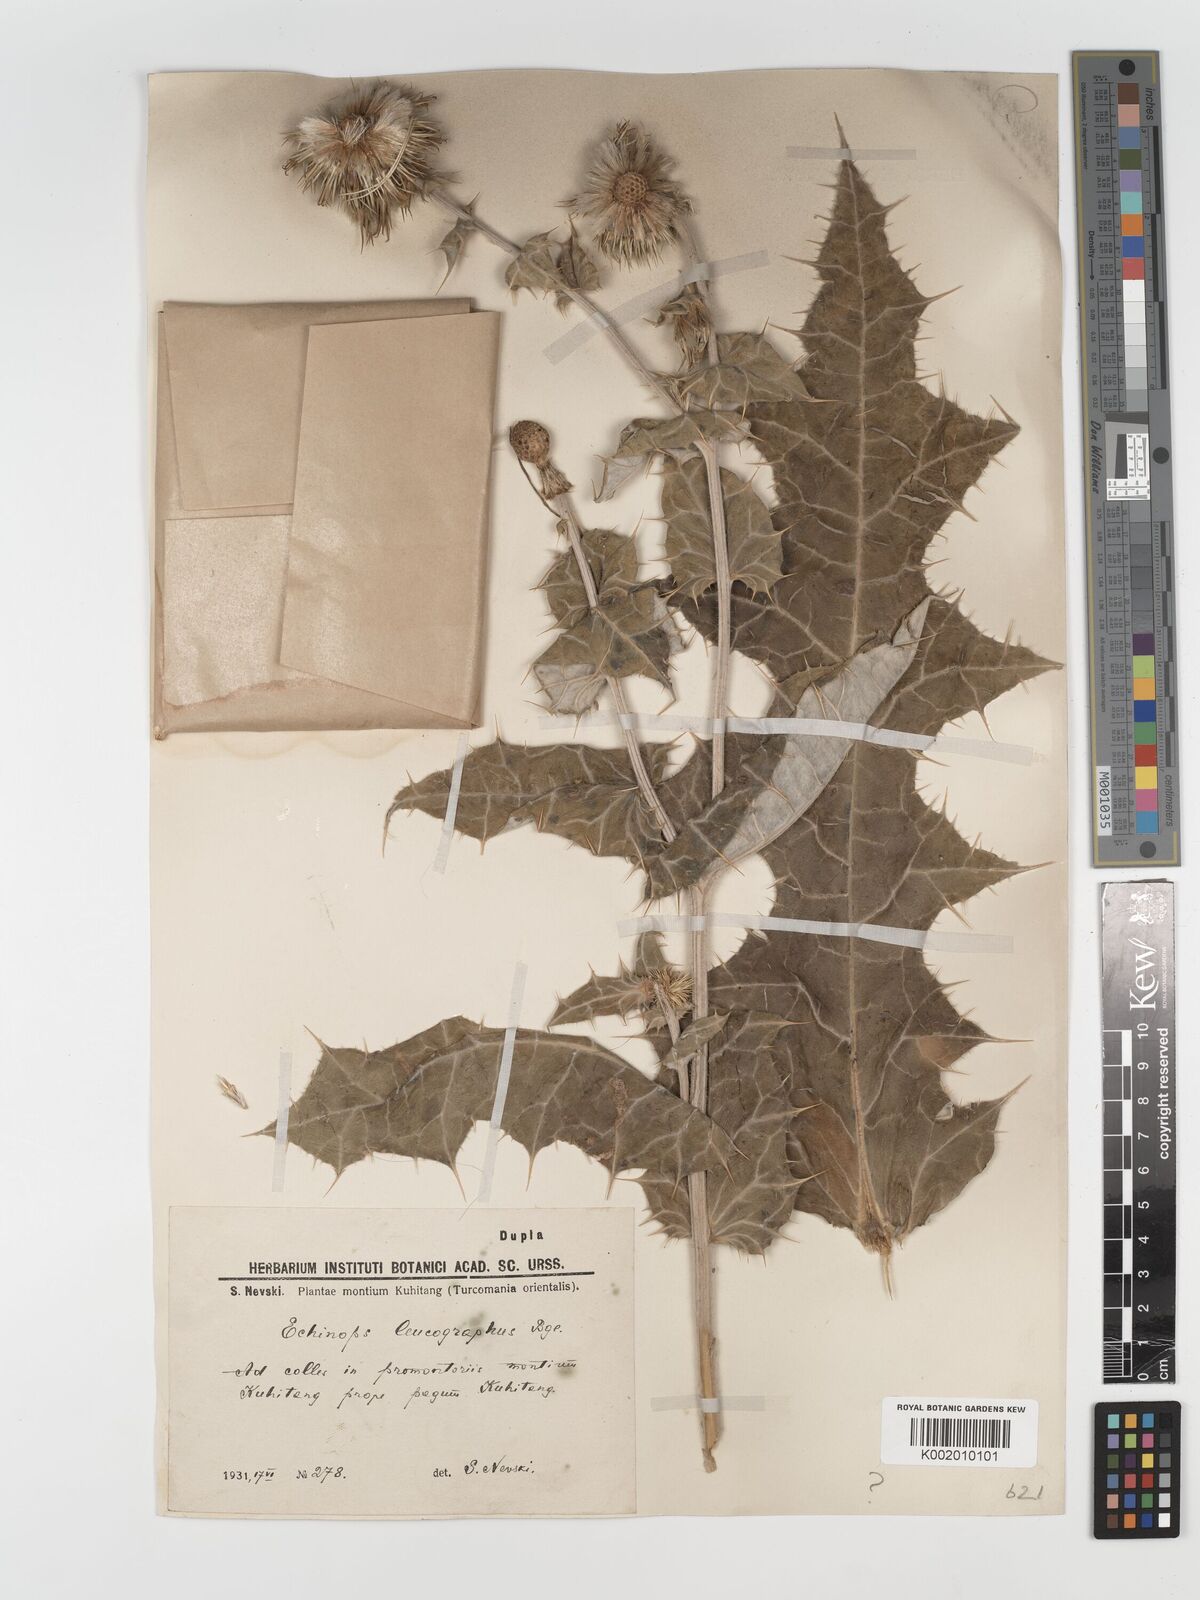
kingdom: Plantae
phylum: Tracheophyta
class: Magnoliopsida
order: Asterales
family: Asteraceae
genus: Echinops
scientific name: Echinops karatavicus
